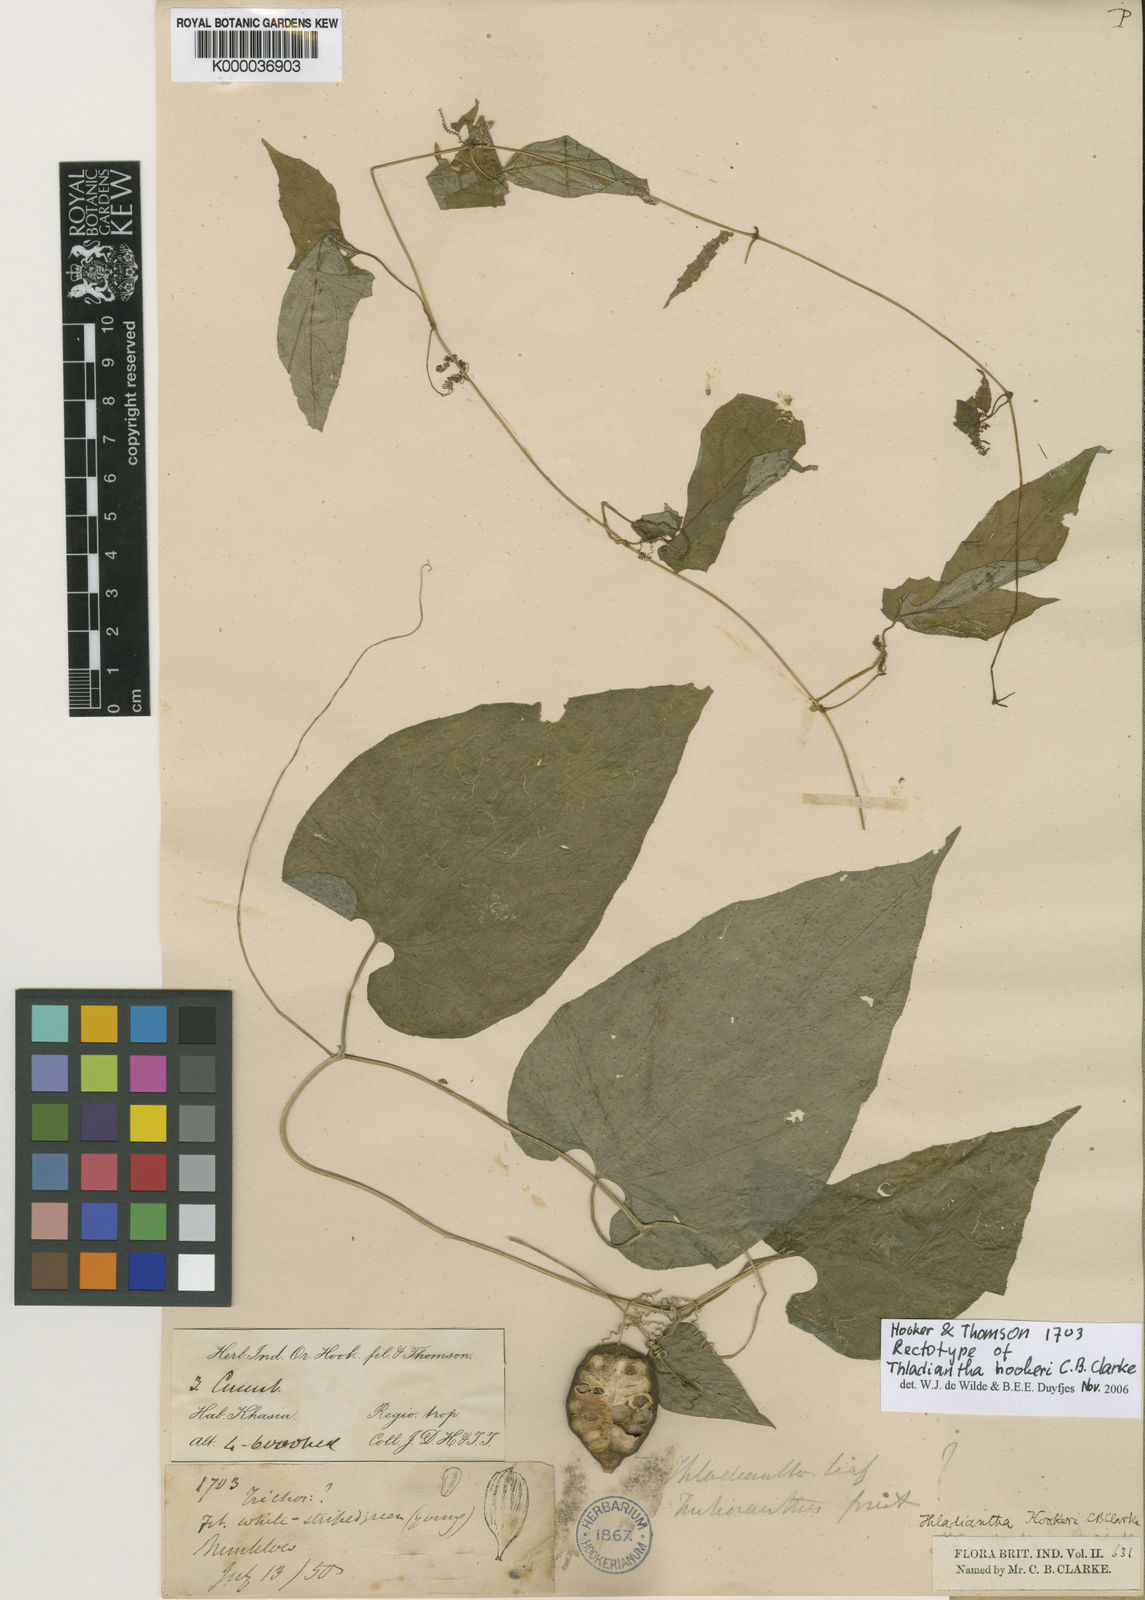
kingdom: Plantae
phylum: Tracheophyta
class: Magnoliopsida
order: Cucurbitales
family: Cucurbitaceae
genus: Thladiantha
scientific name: Thladiantha hookeri
